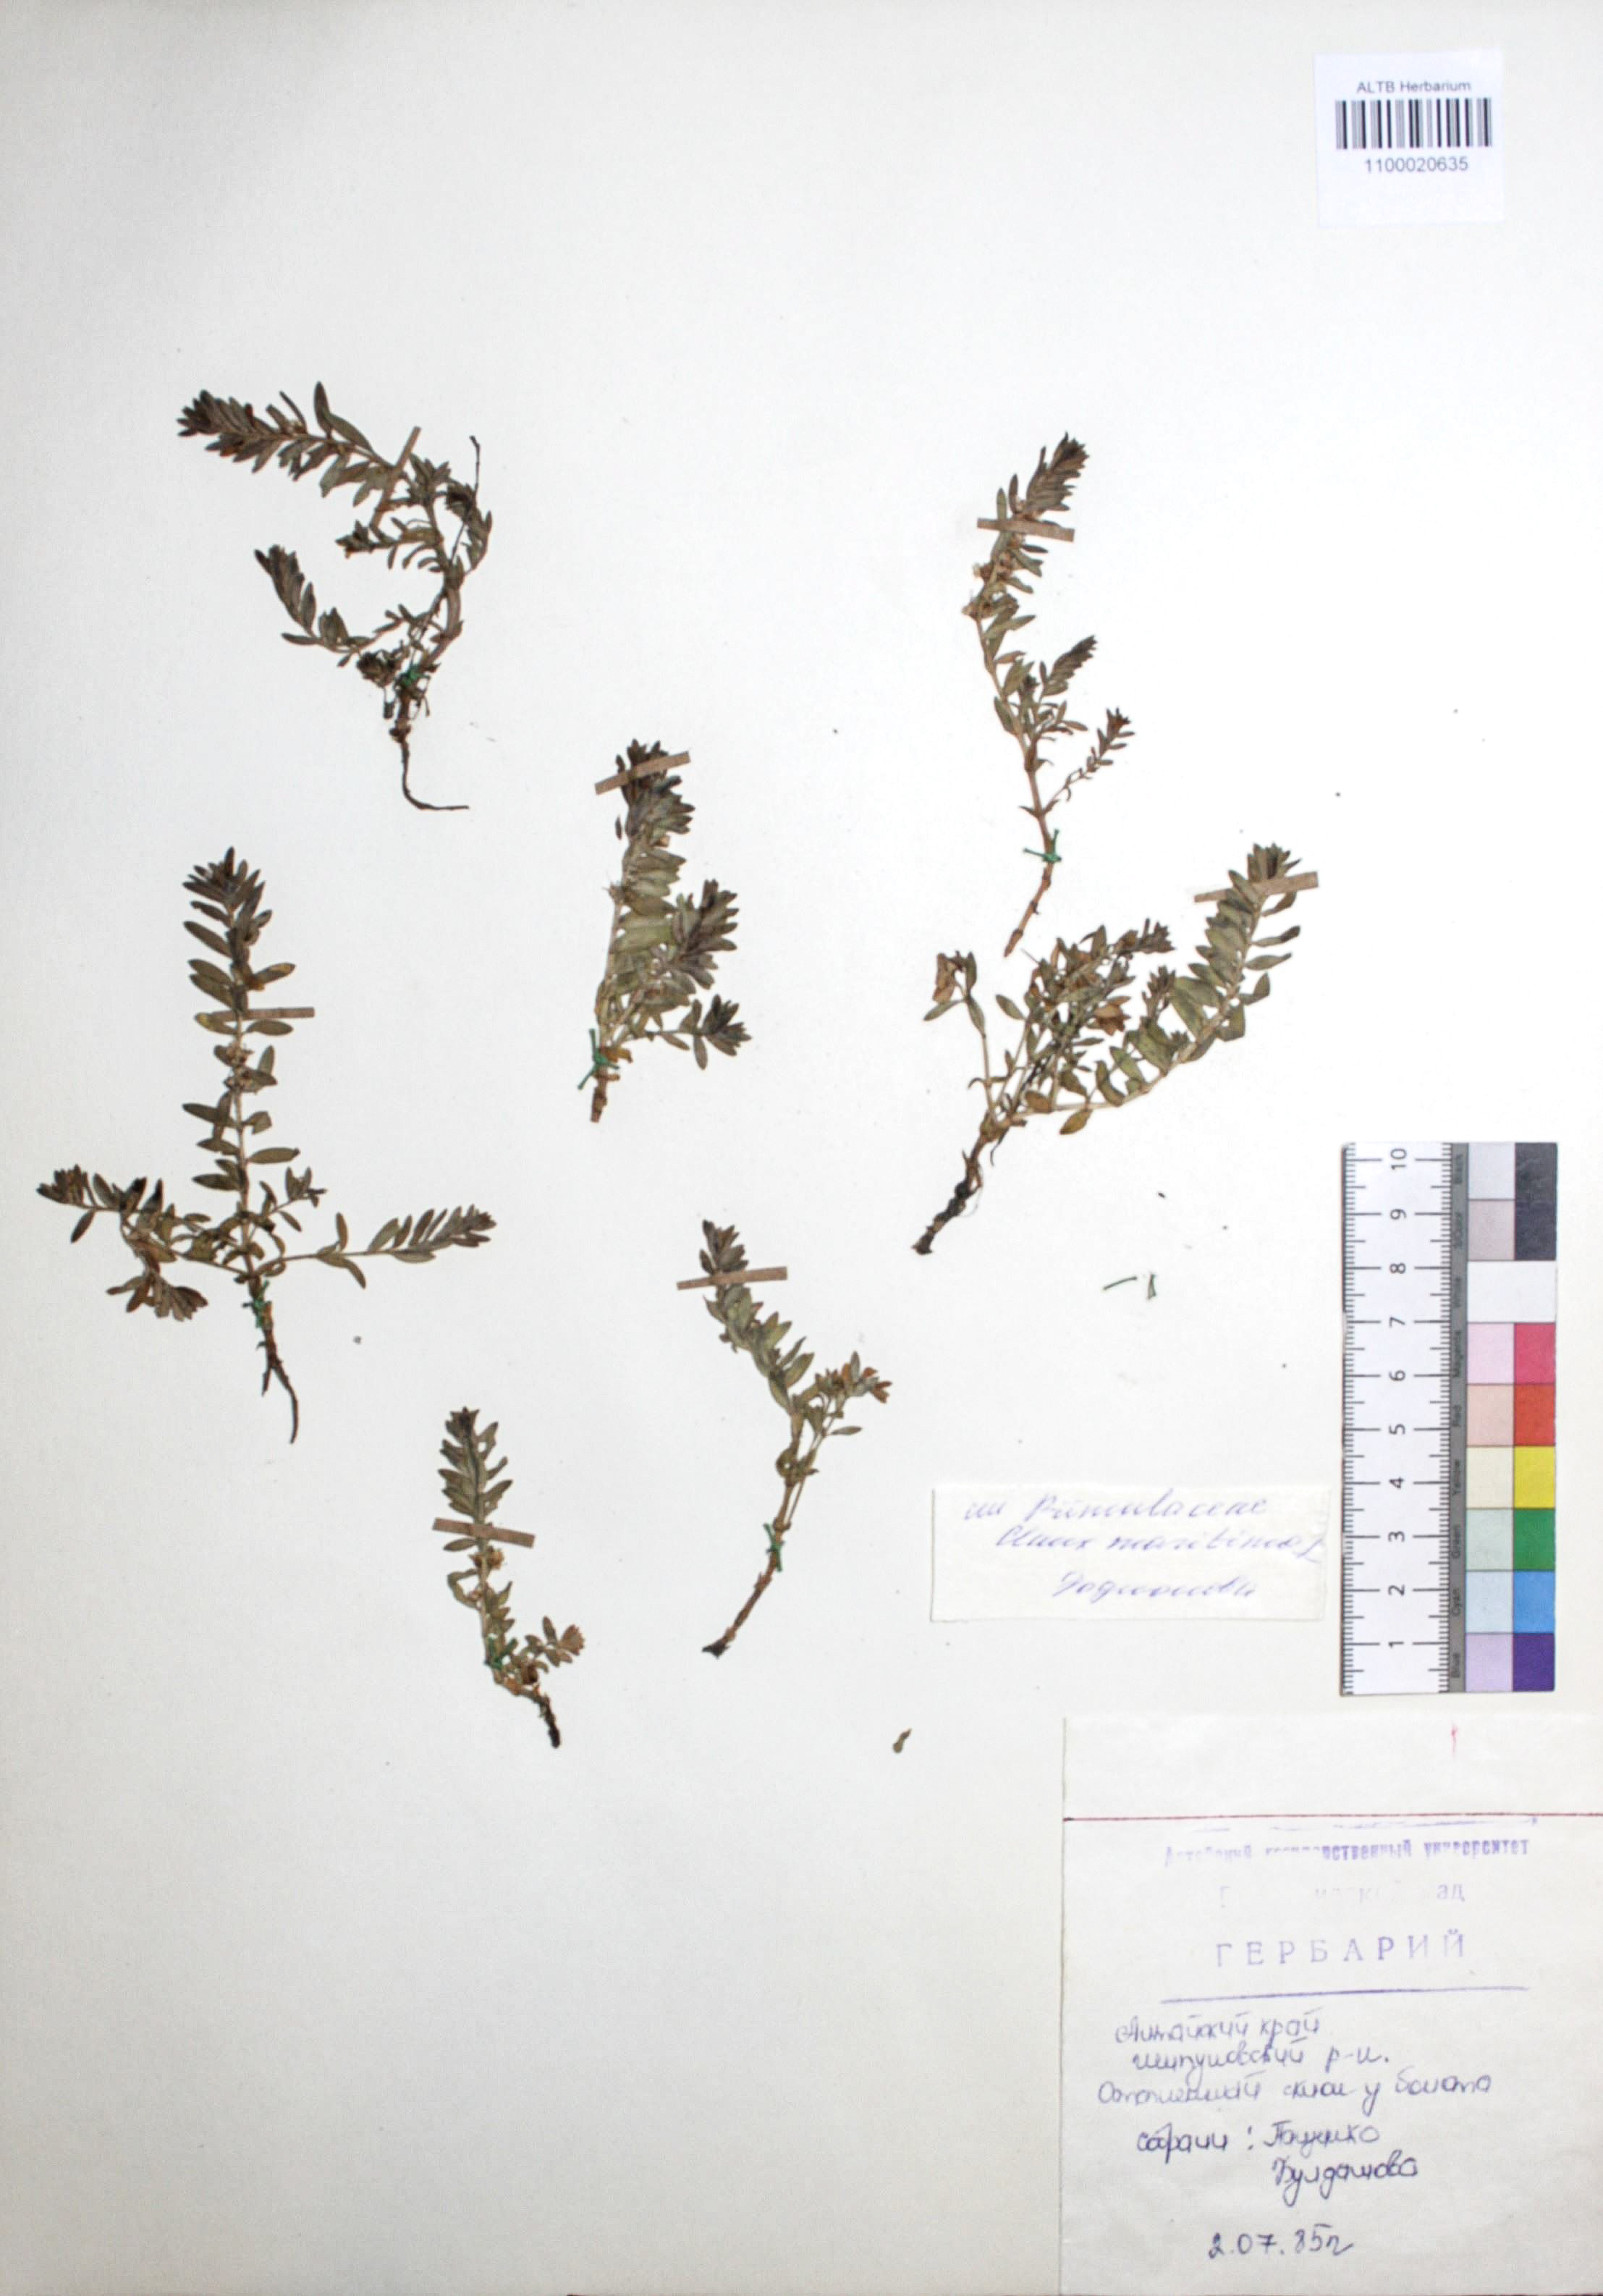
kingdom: Plantae
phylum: Tracheophyta
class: Magnoliopsida
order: Ericales
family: Primulaceae
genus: Lysimachia
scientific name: Lysimachia maritima
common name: Sea milkwort
